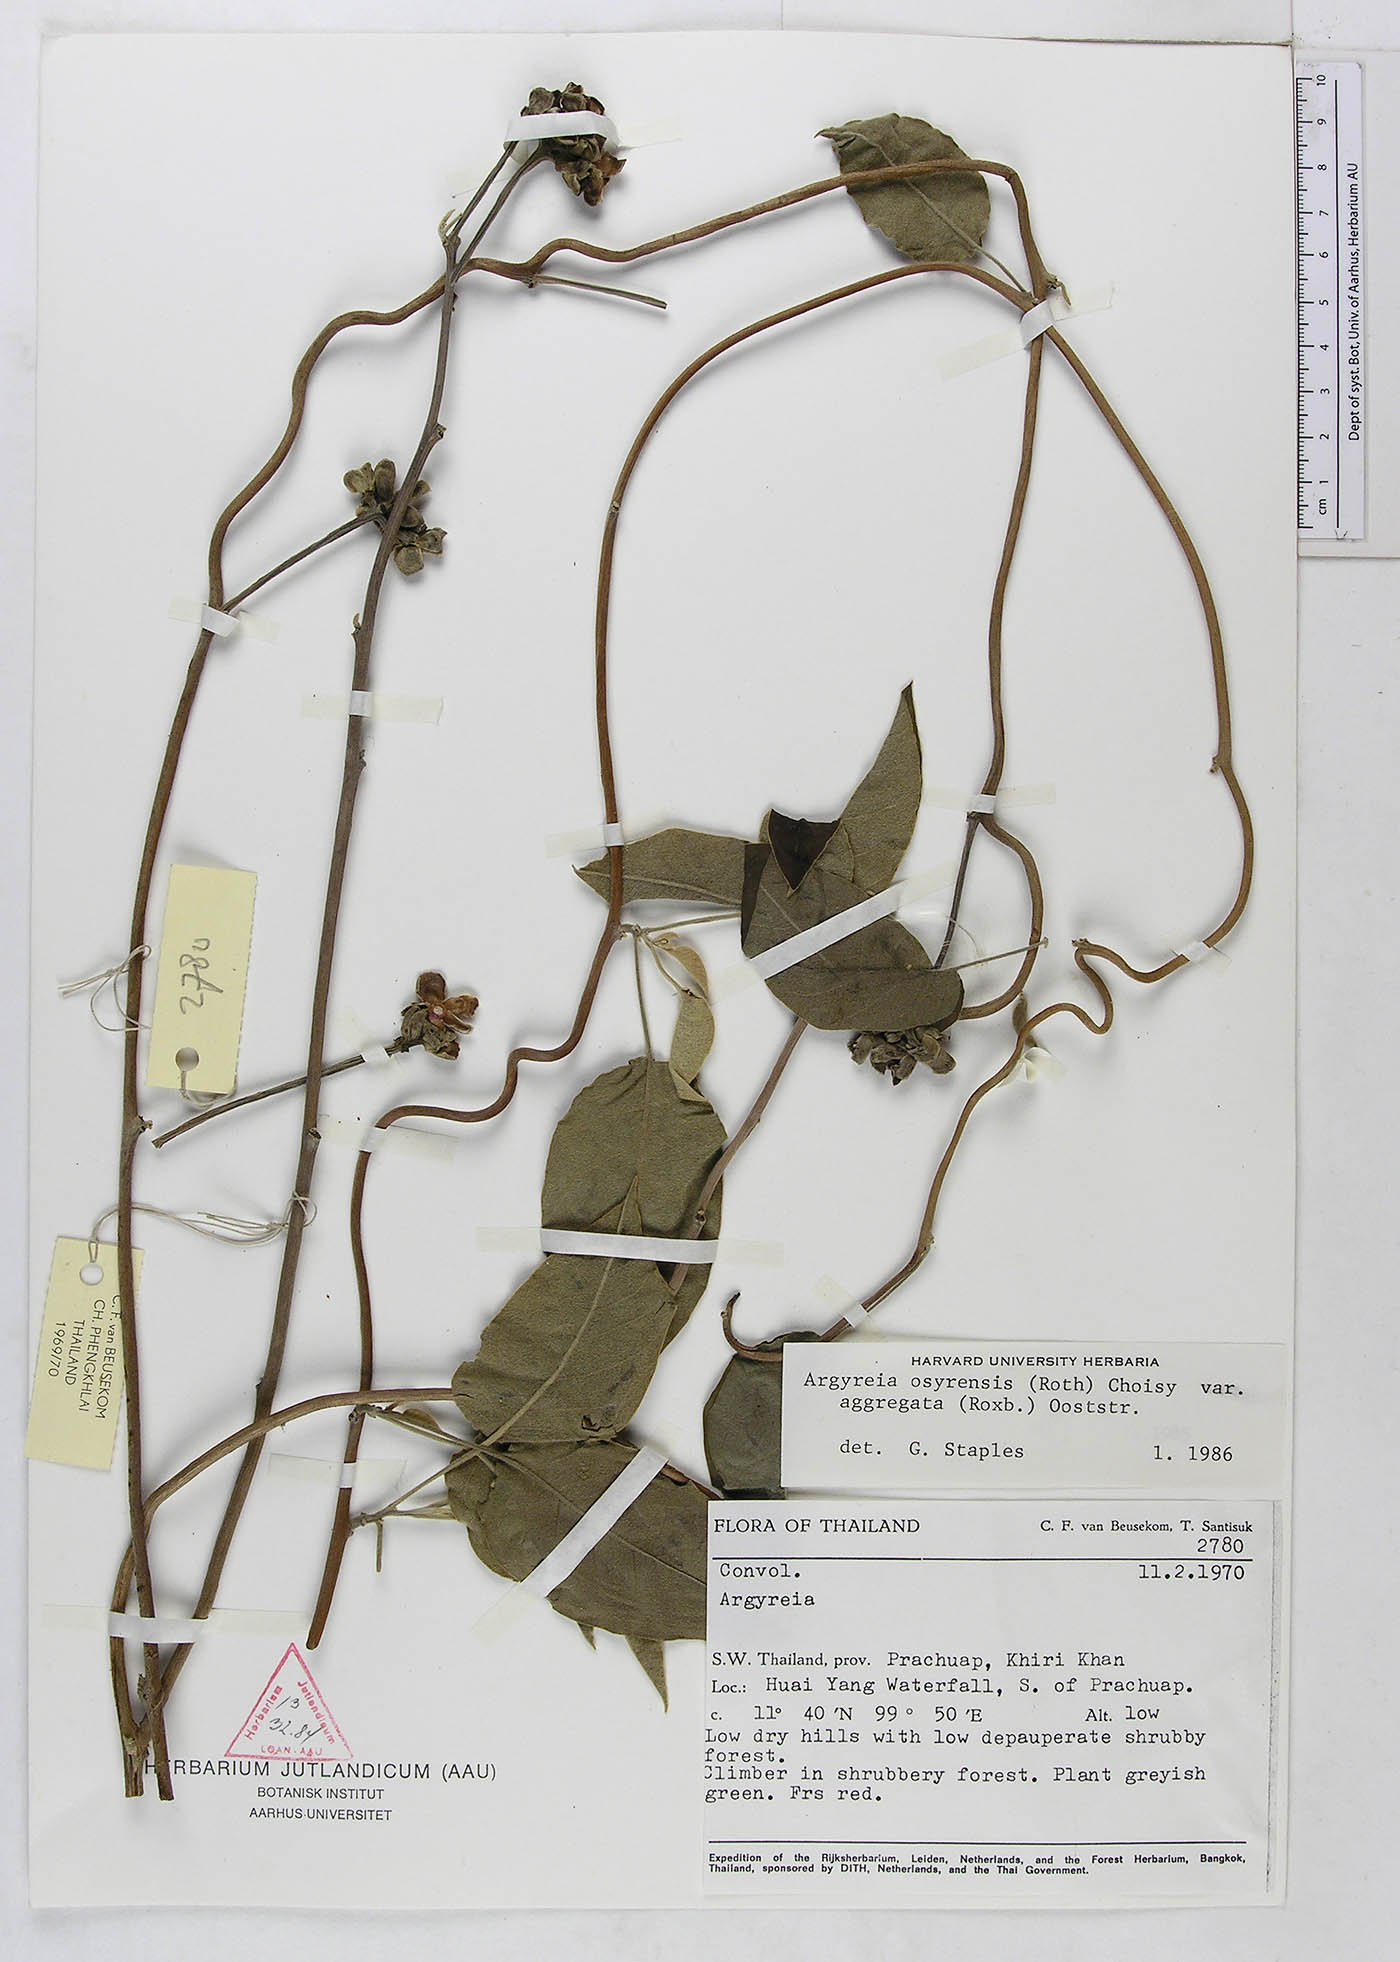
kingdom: Plantae
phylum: Tracheophyta
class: Magnoliopsida
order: Solanales
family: Convolvulaceae
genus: Argyreia
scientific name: Argyreia osyrensis
